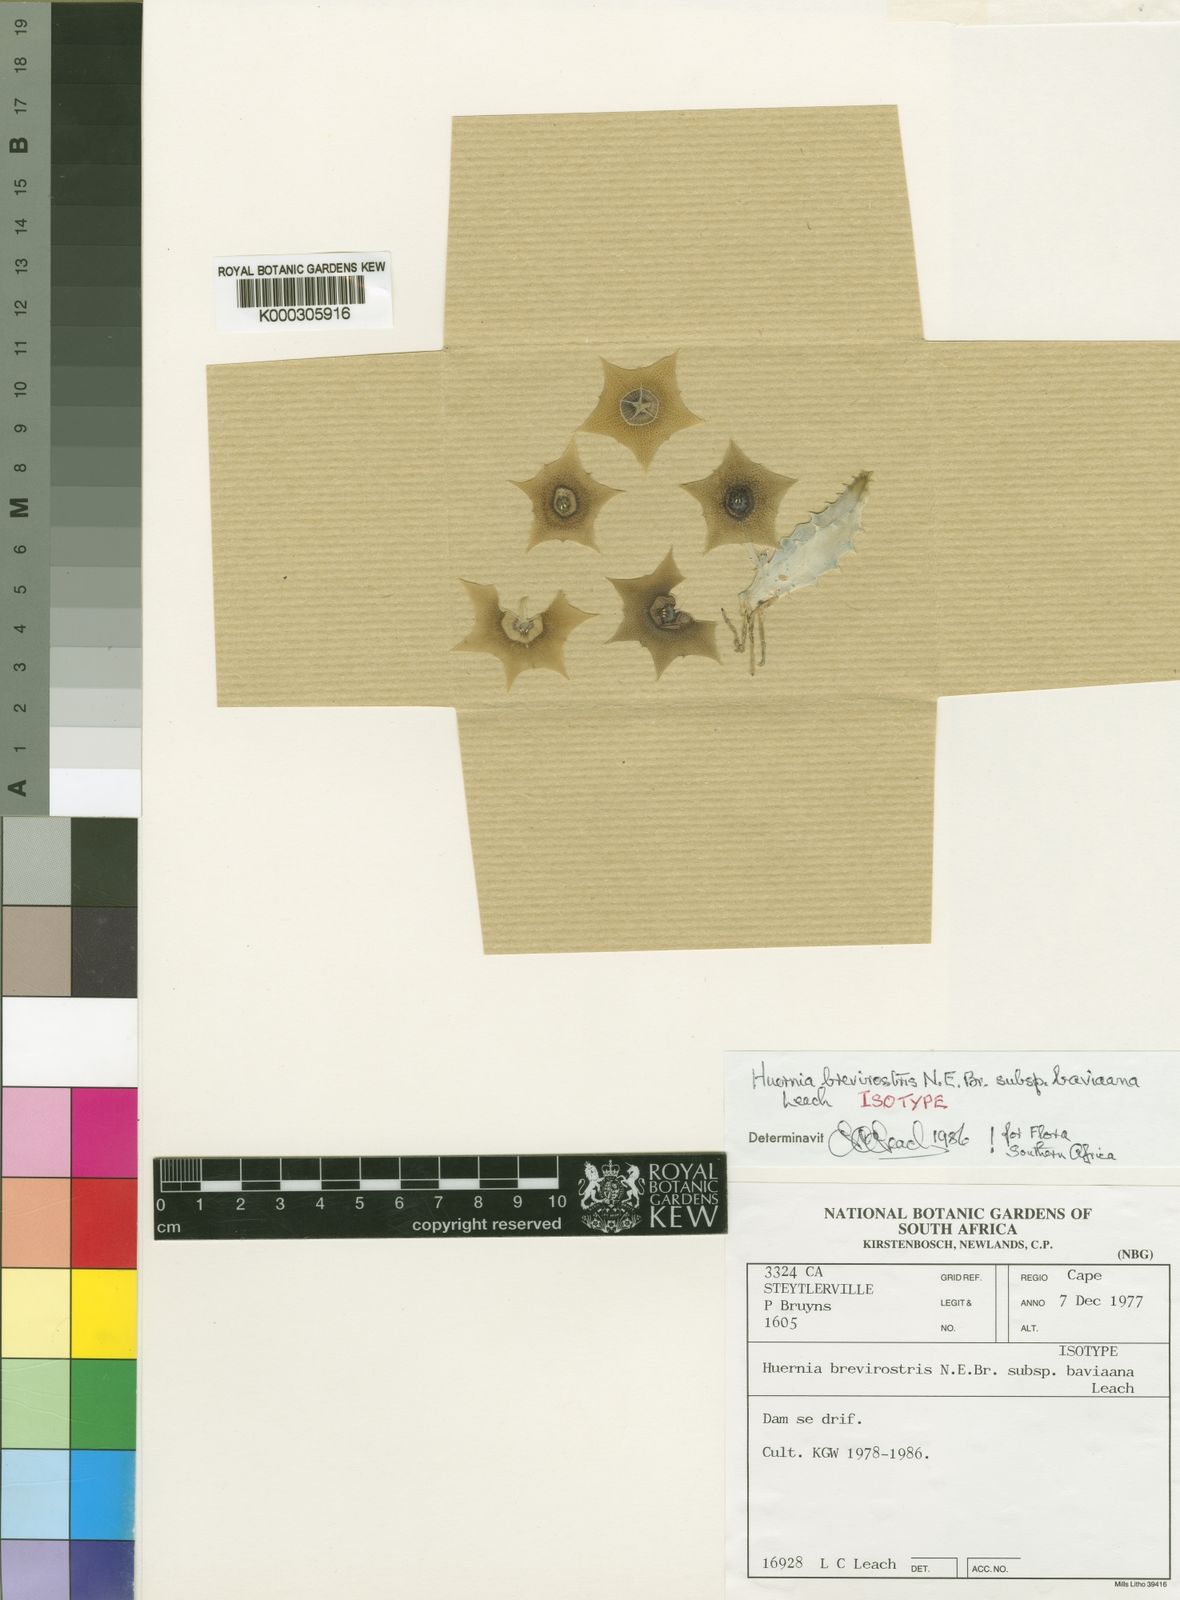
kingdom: Plantae
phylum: Tracheophyta
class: Magnoliopsida
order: Gentianales
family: Apocynaceae
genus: Ceropegia
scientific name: Ceropegia thuretii
